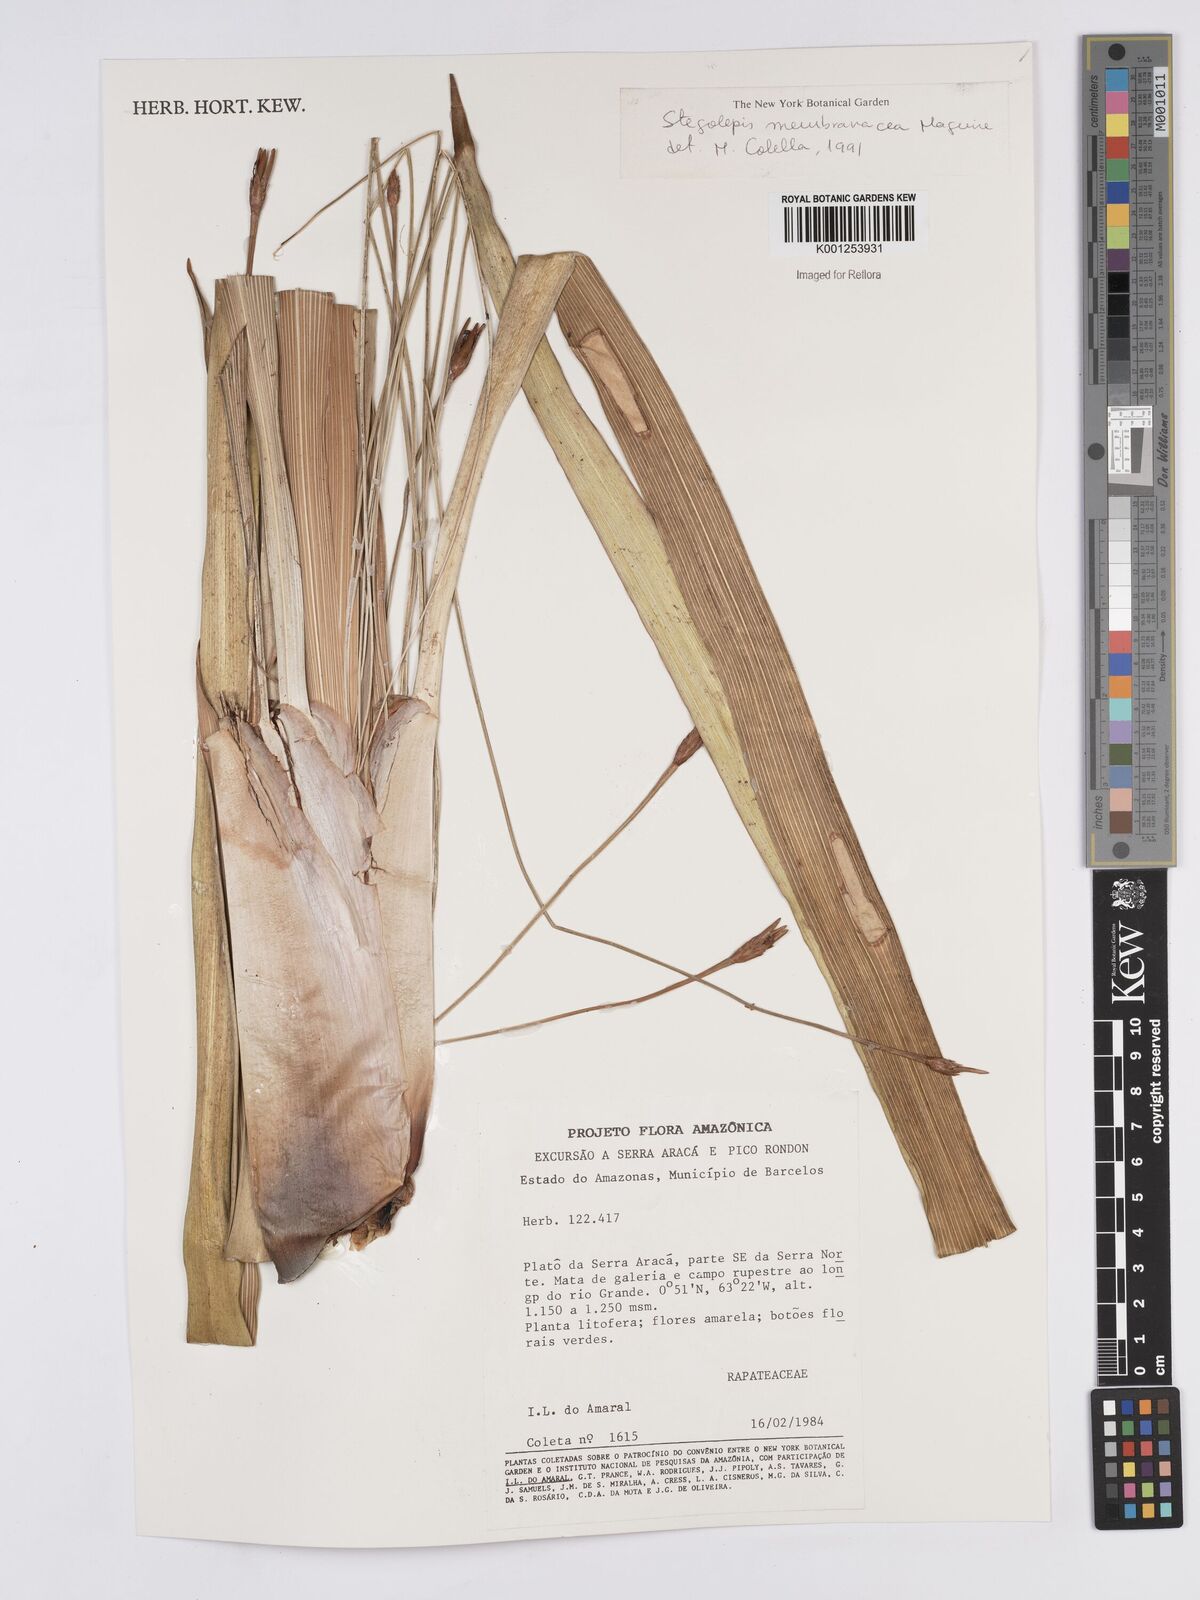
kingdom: Plantae
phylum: Tracheophyta
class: Liliopsida
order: Poales
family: Rapateaceae
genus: Stegolepis
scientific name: Stegolepis membranacea
